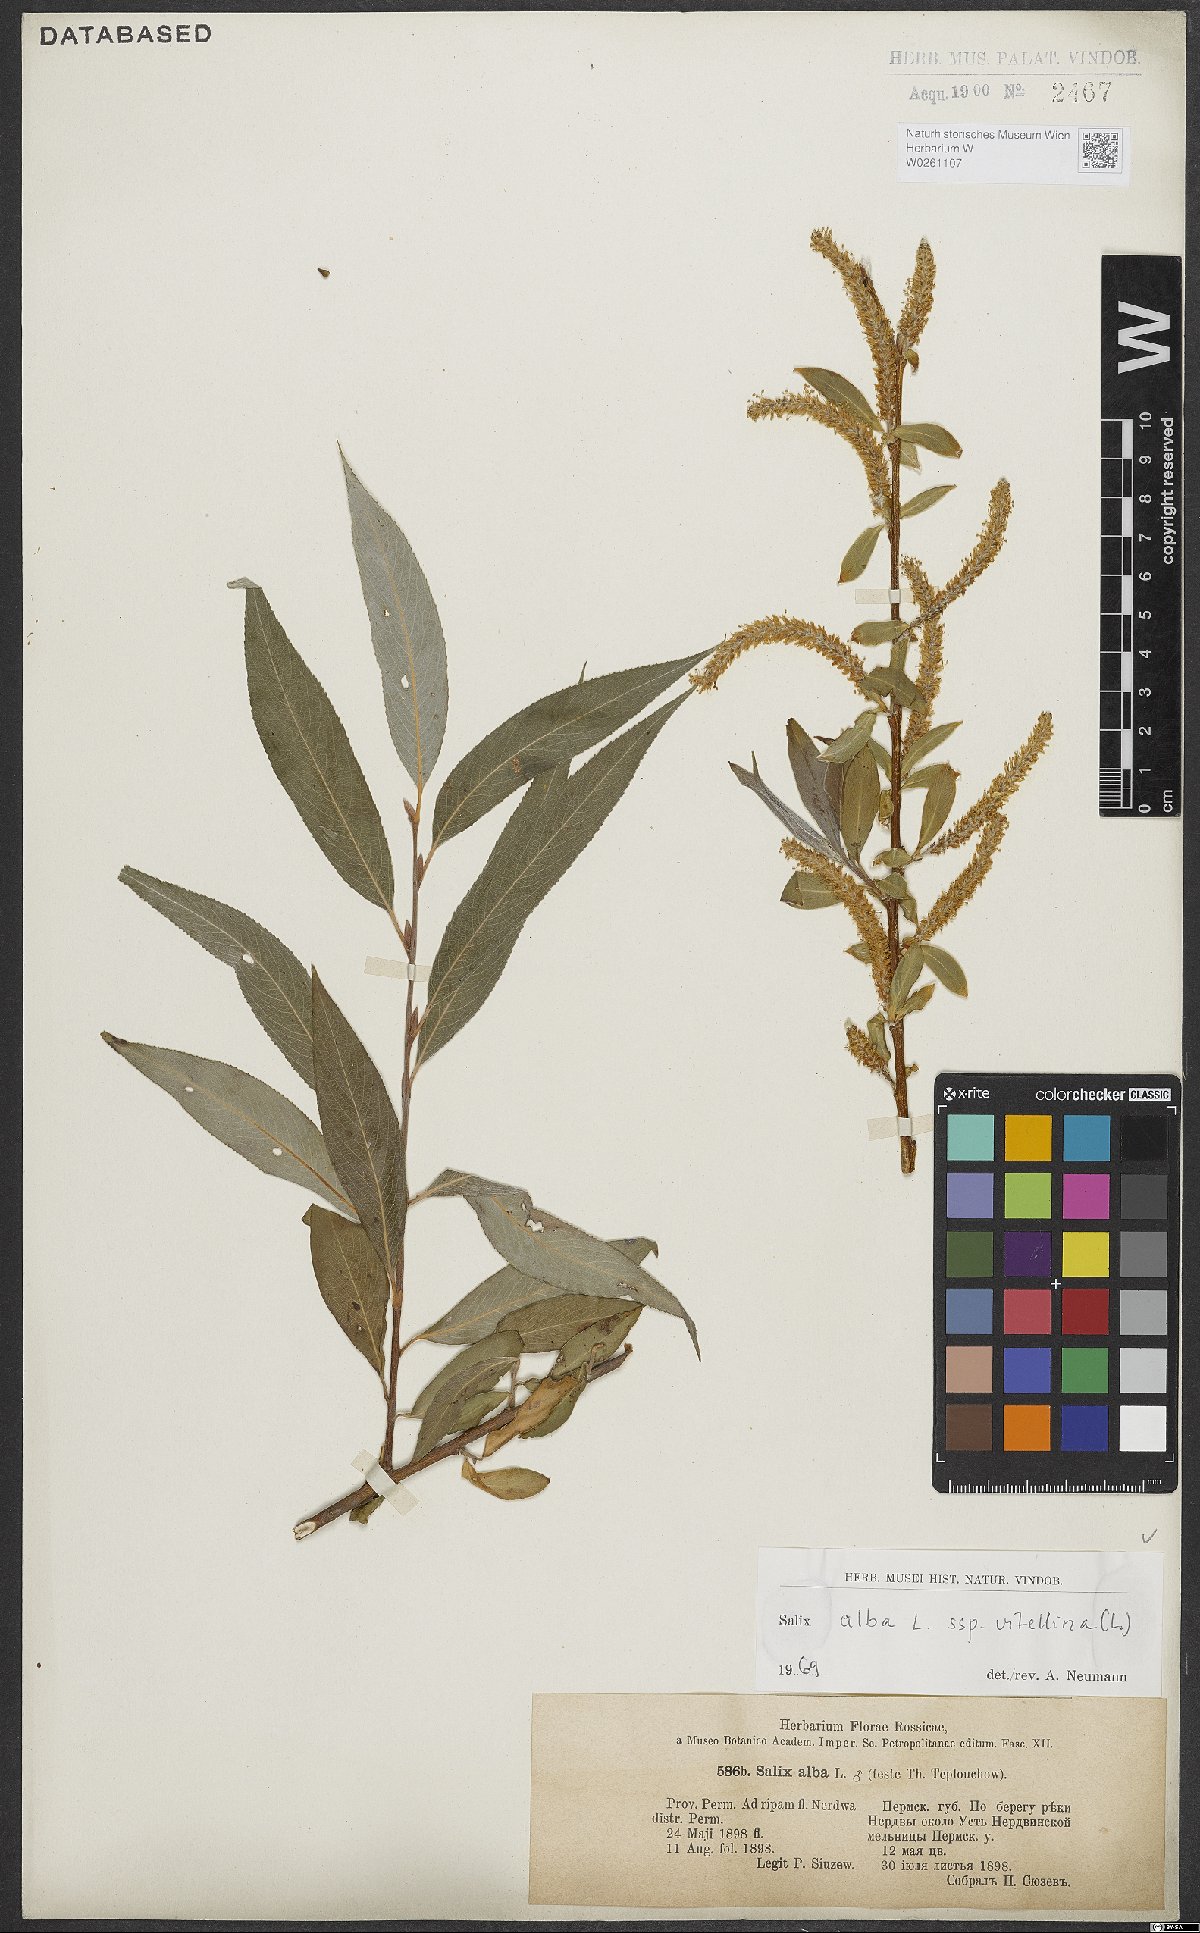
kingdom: Plantae
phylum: Tracheophyta
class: Magnoliopsida
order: Malpighiales
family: Salicaceae
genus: Salix
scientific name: Salix alba
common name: White willow
